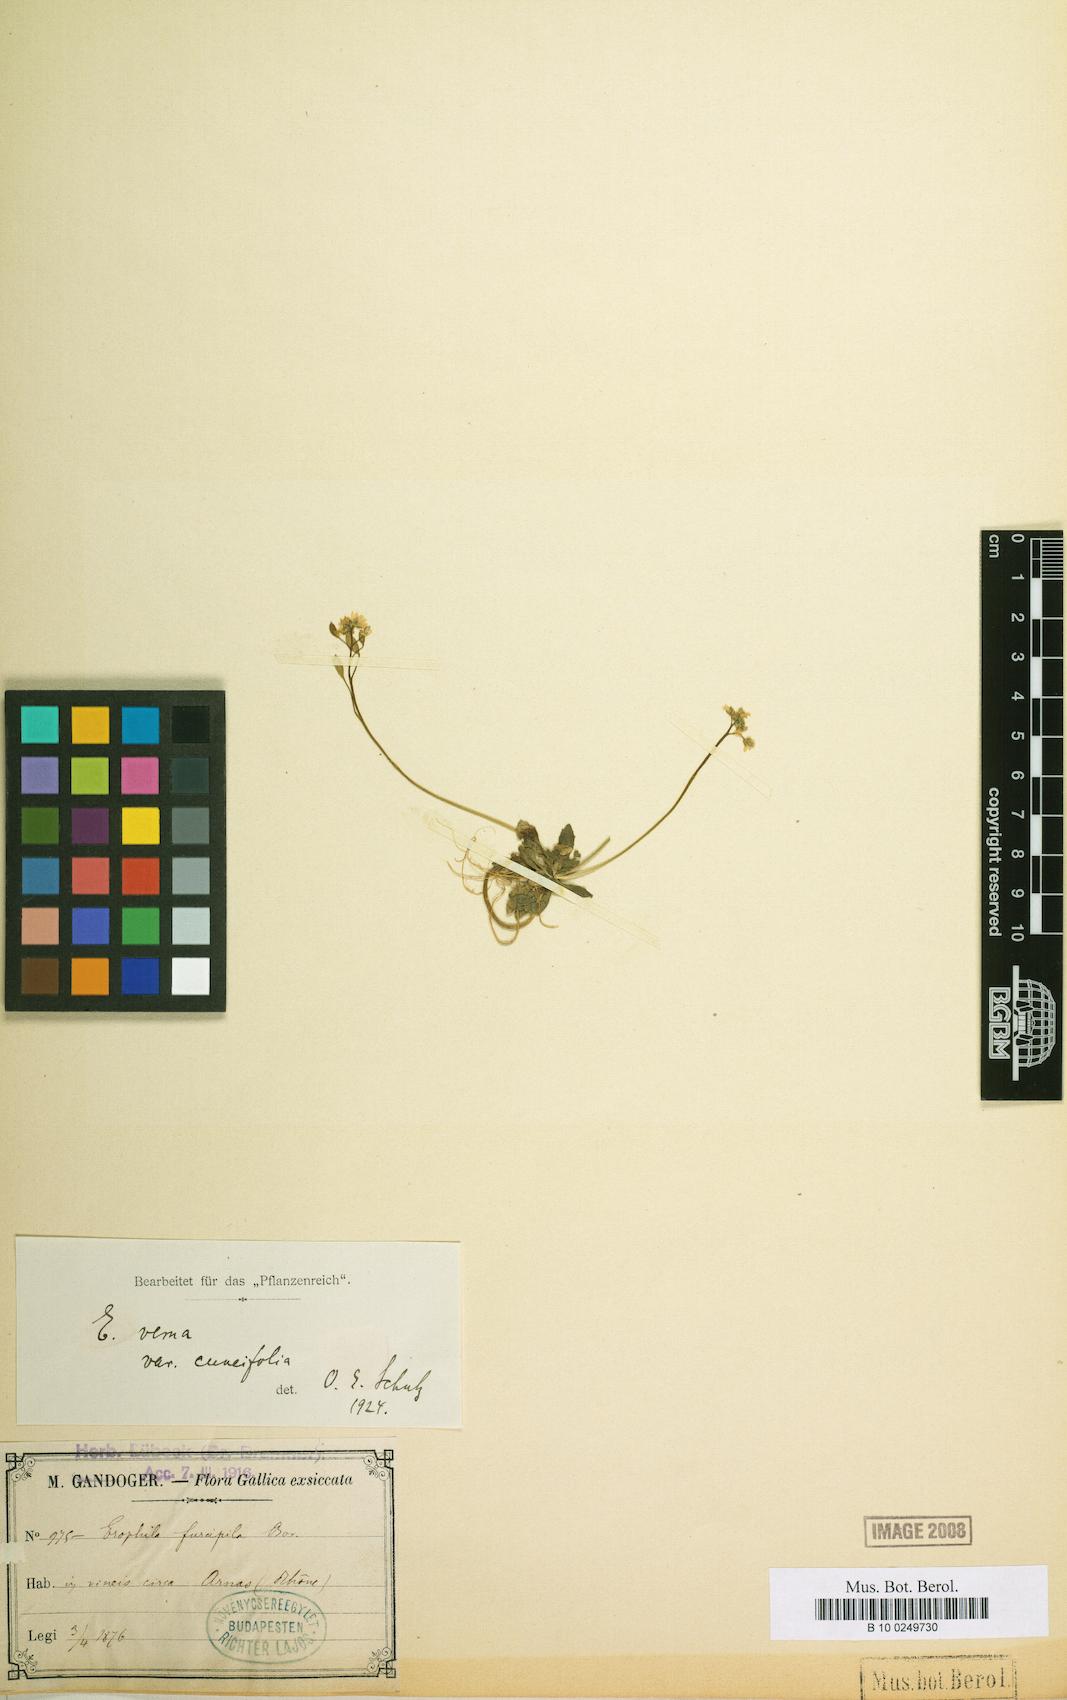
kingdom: Plantae
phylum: Tracheophyta
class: Magnoliopsida
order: Brassicales
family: Brassicaceae
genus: Draba
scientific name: Draba verna
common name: Spring draba
